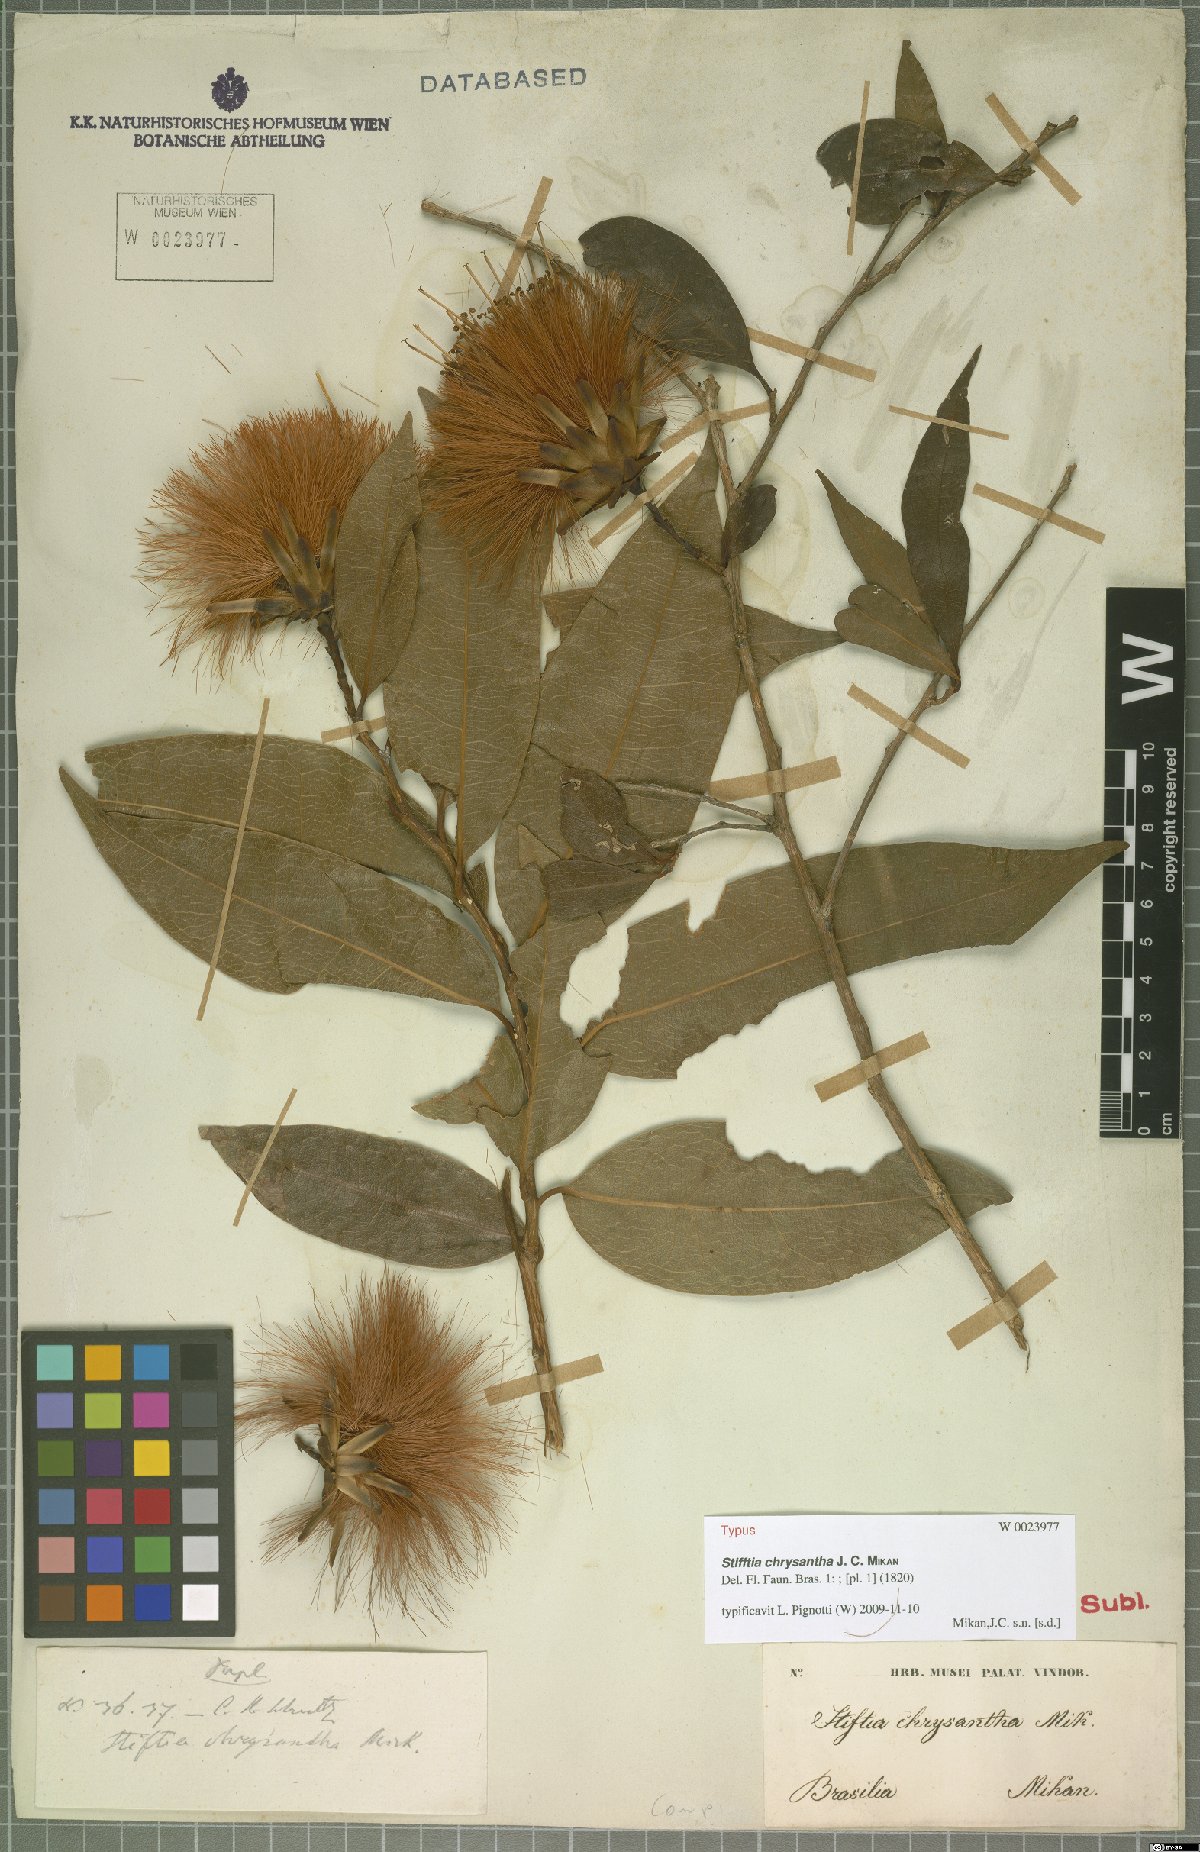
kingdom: Plantae
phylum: Tracheophyta
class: Magnoliopsida
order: Asterales
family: Asteraceae
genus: Stifftia
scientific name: Stifftia chrysantha
